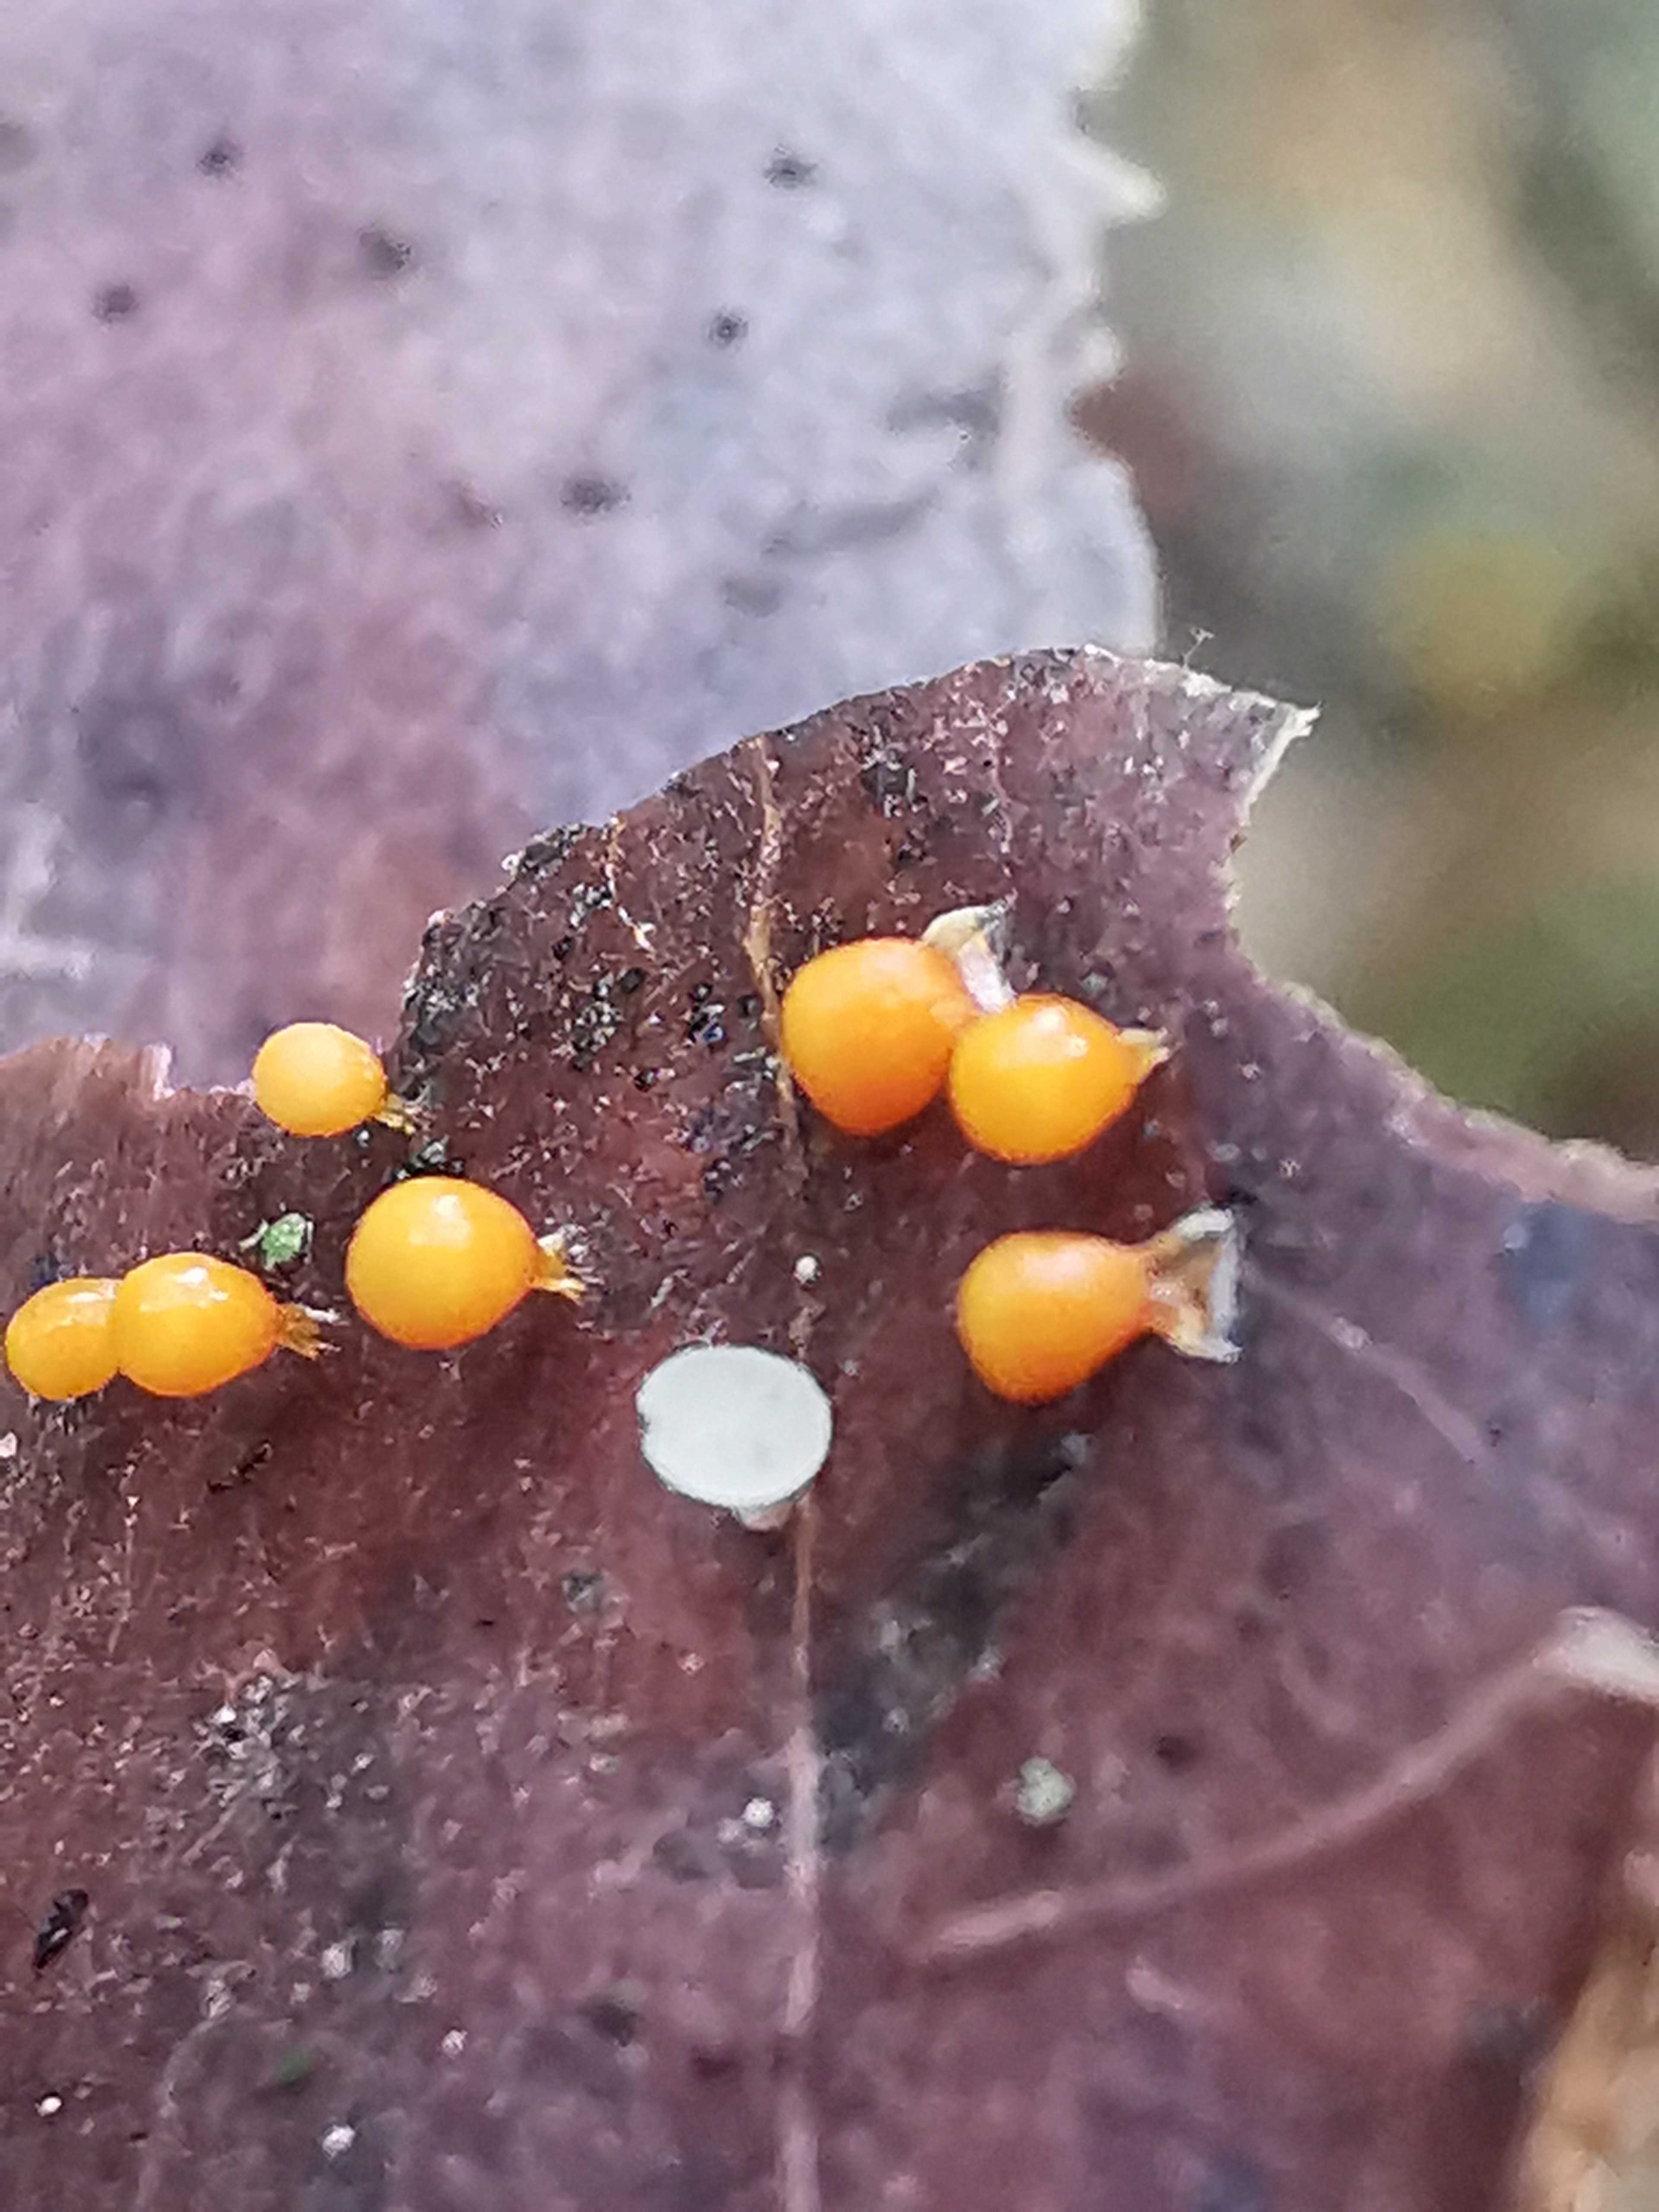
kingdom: Protozoa
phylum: Mycetozoa
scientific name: Mycetozoa
